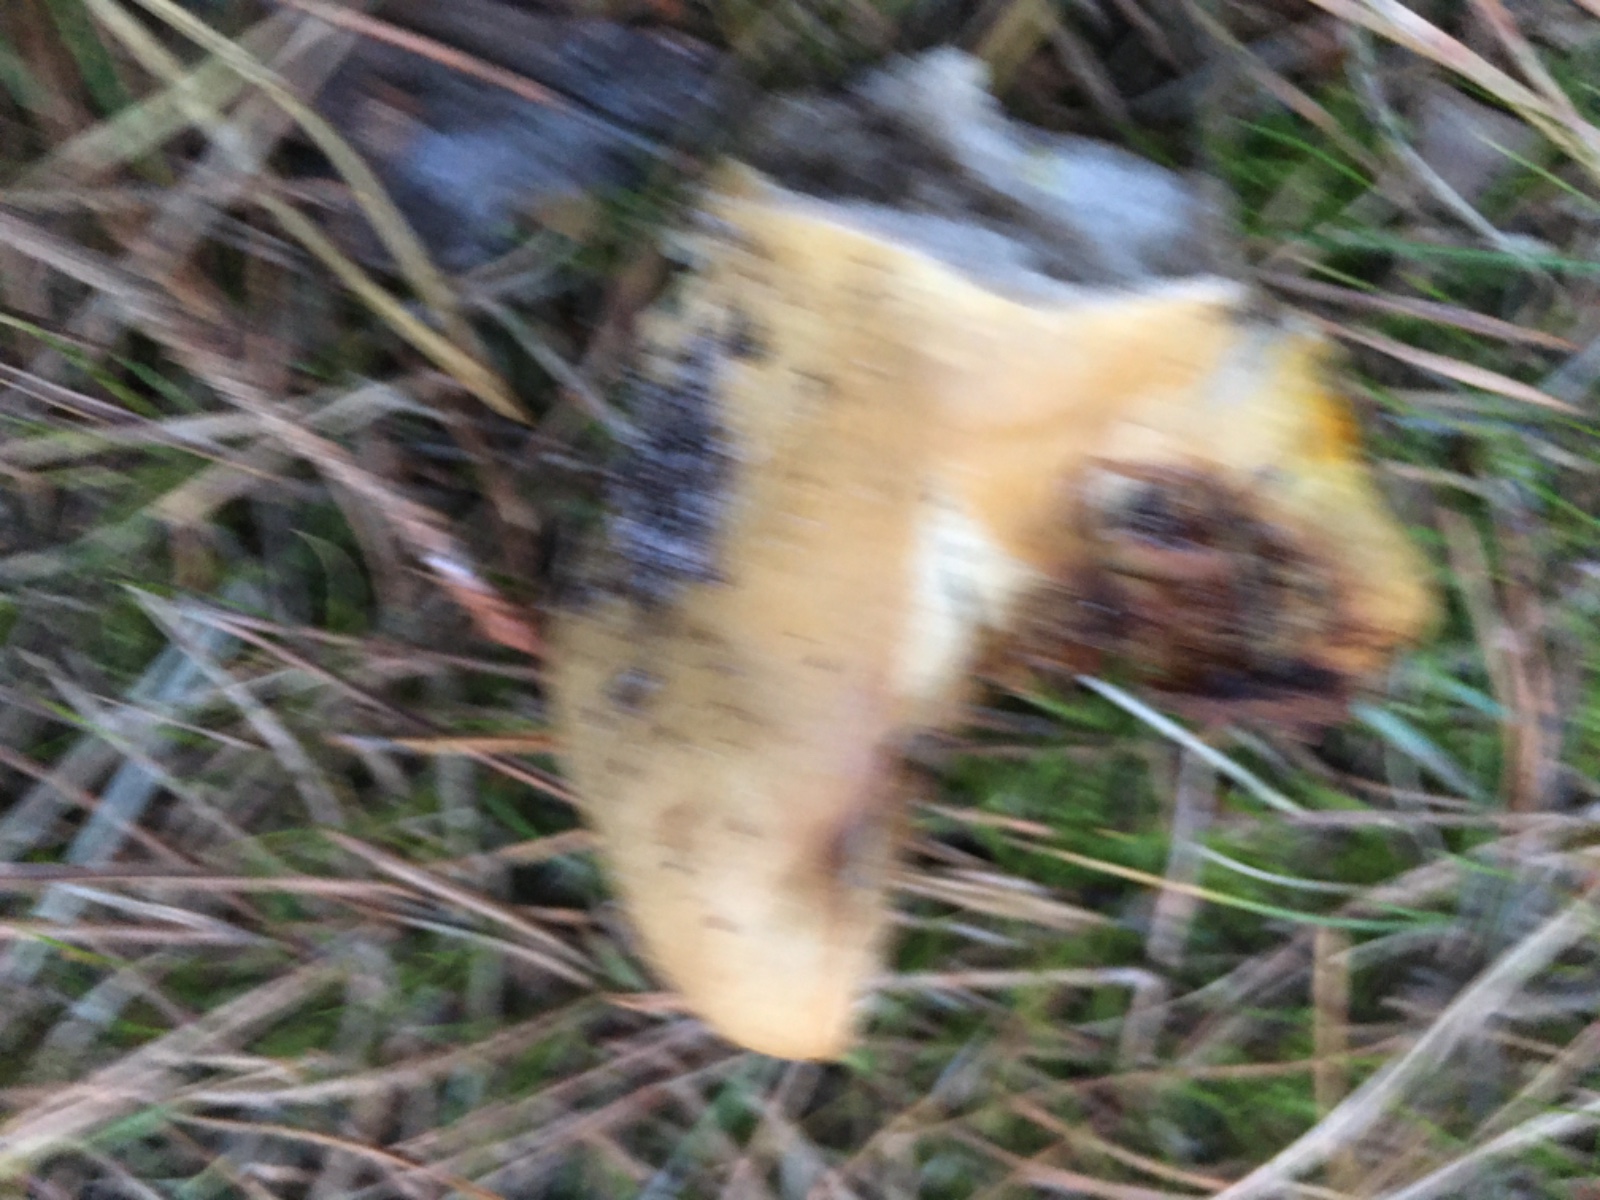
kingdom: Fungi
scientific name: Fungi
